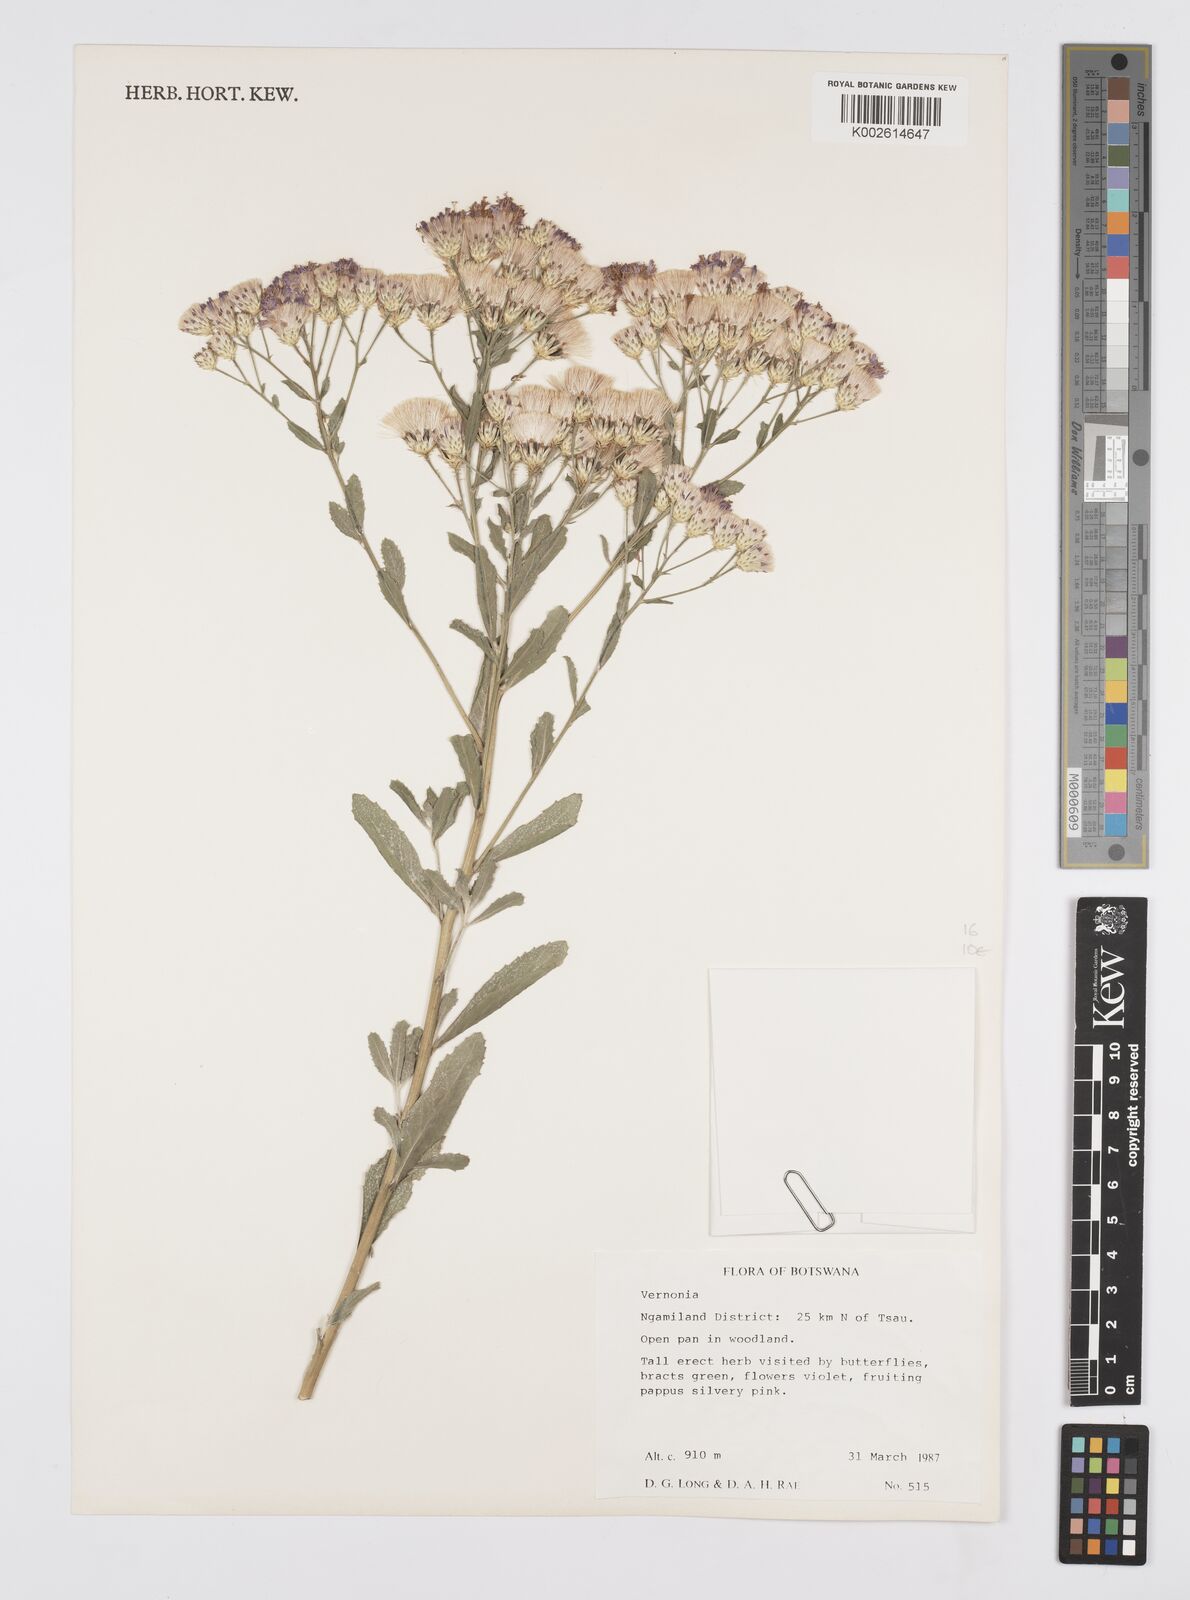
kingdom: Plantae
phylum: Tracheophyta
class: Magnoliopsida
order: Asterales
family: Asteraceae
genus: Linzia
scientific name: Linzia glabra
